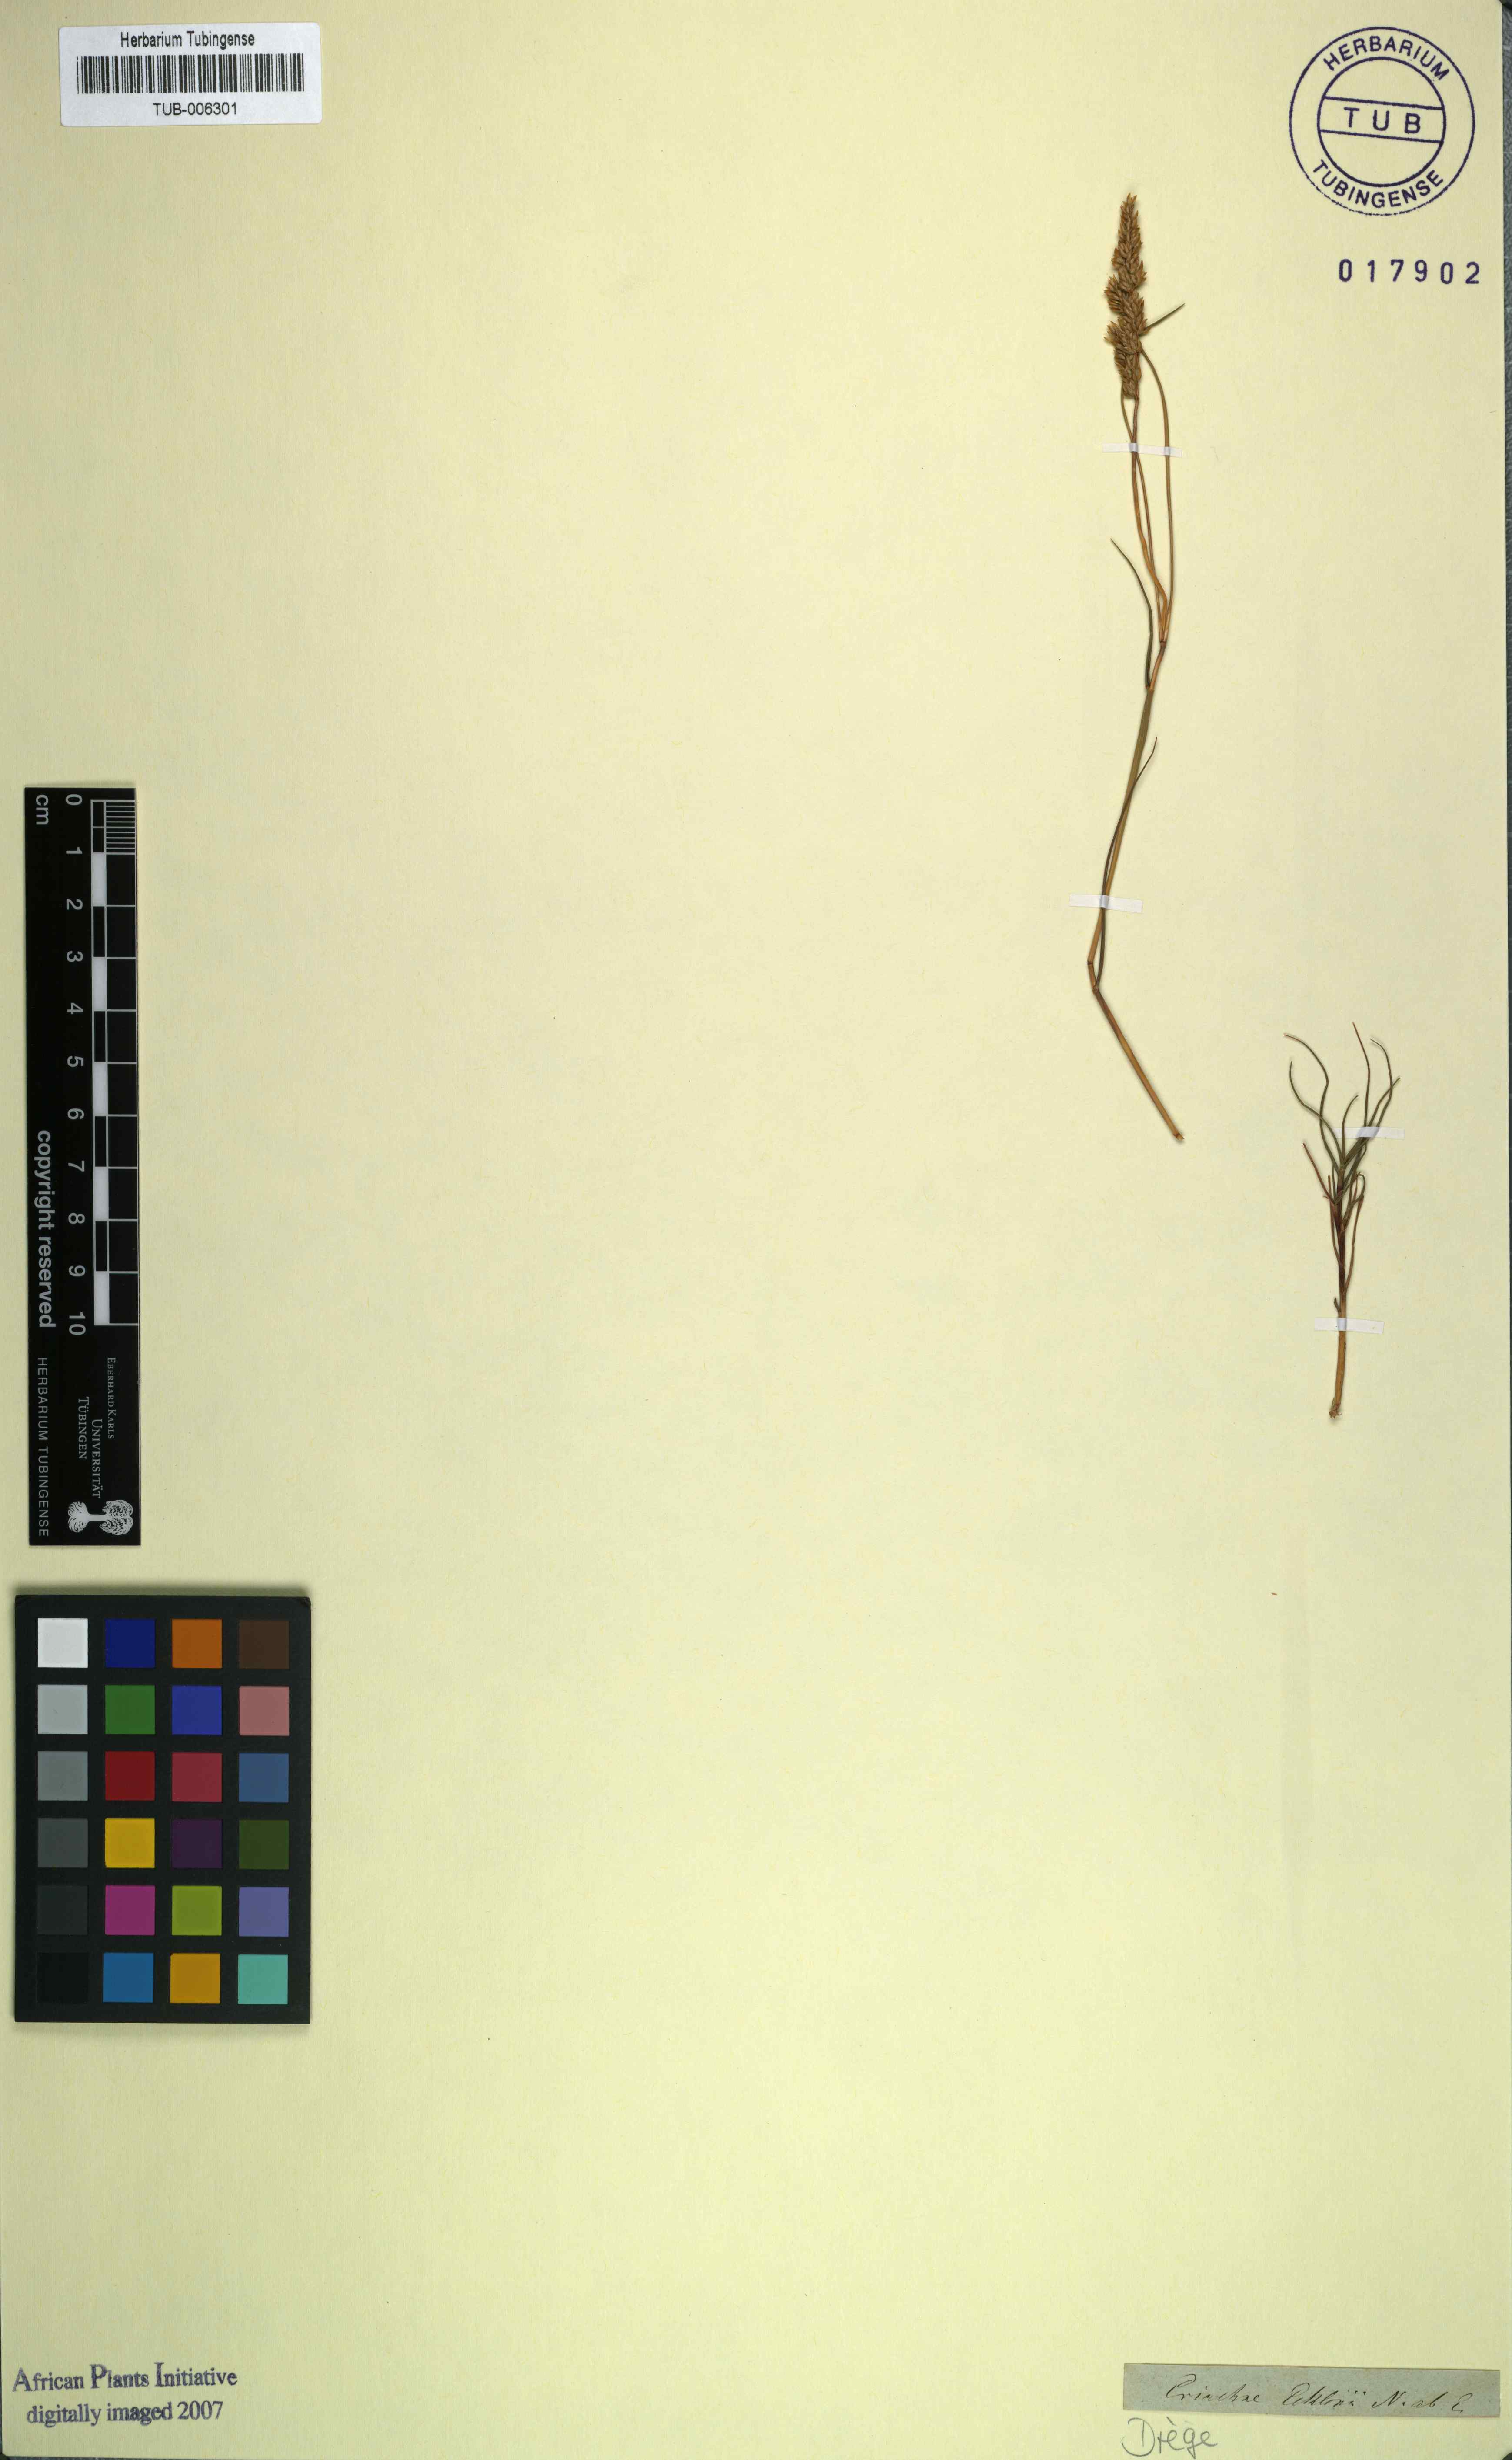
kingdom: Plantae
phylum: Tracheophyta
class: Liliopsida
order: Poales
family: Poaceae
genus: Pentameris
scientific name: Pentameris ecklonii
